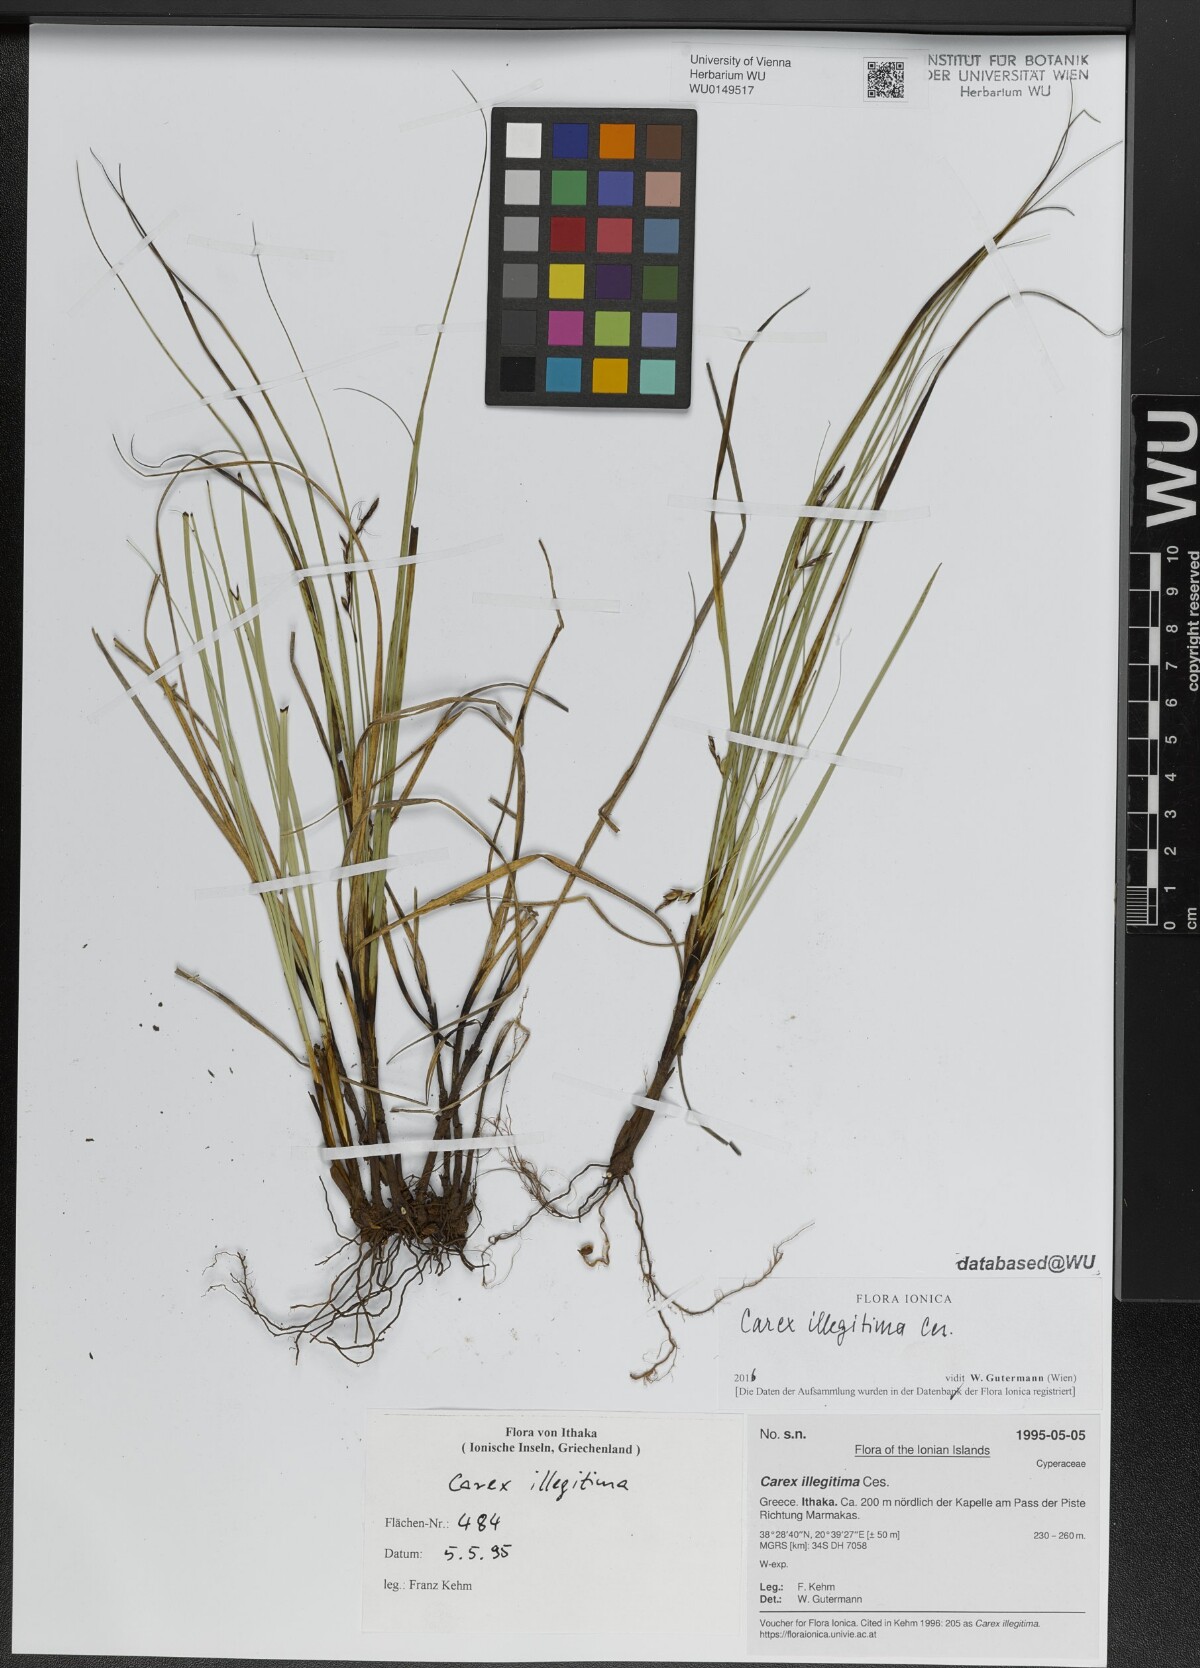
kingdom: Plantae
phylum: Tracheophyta
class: Liliopsida
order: Poales
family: Cyperaceae
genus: Carex
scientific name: Carex illegitima
